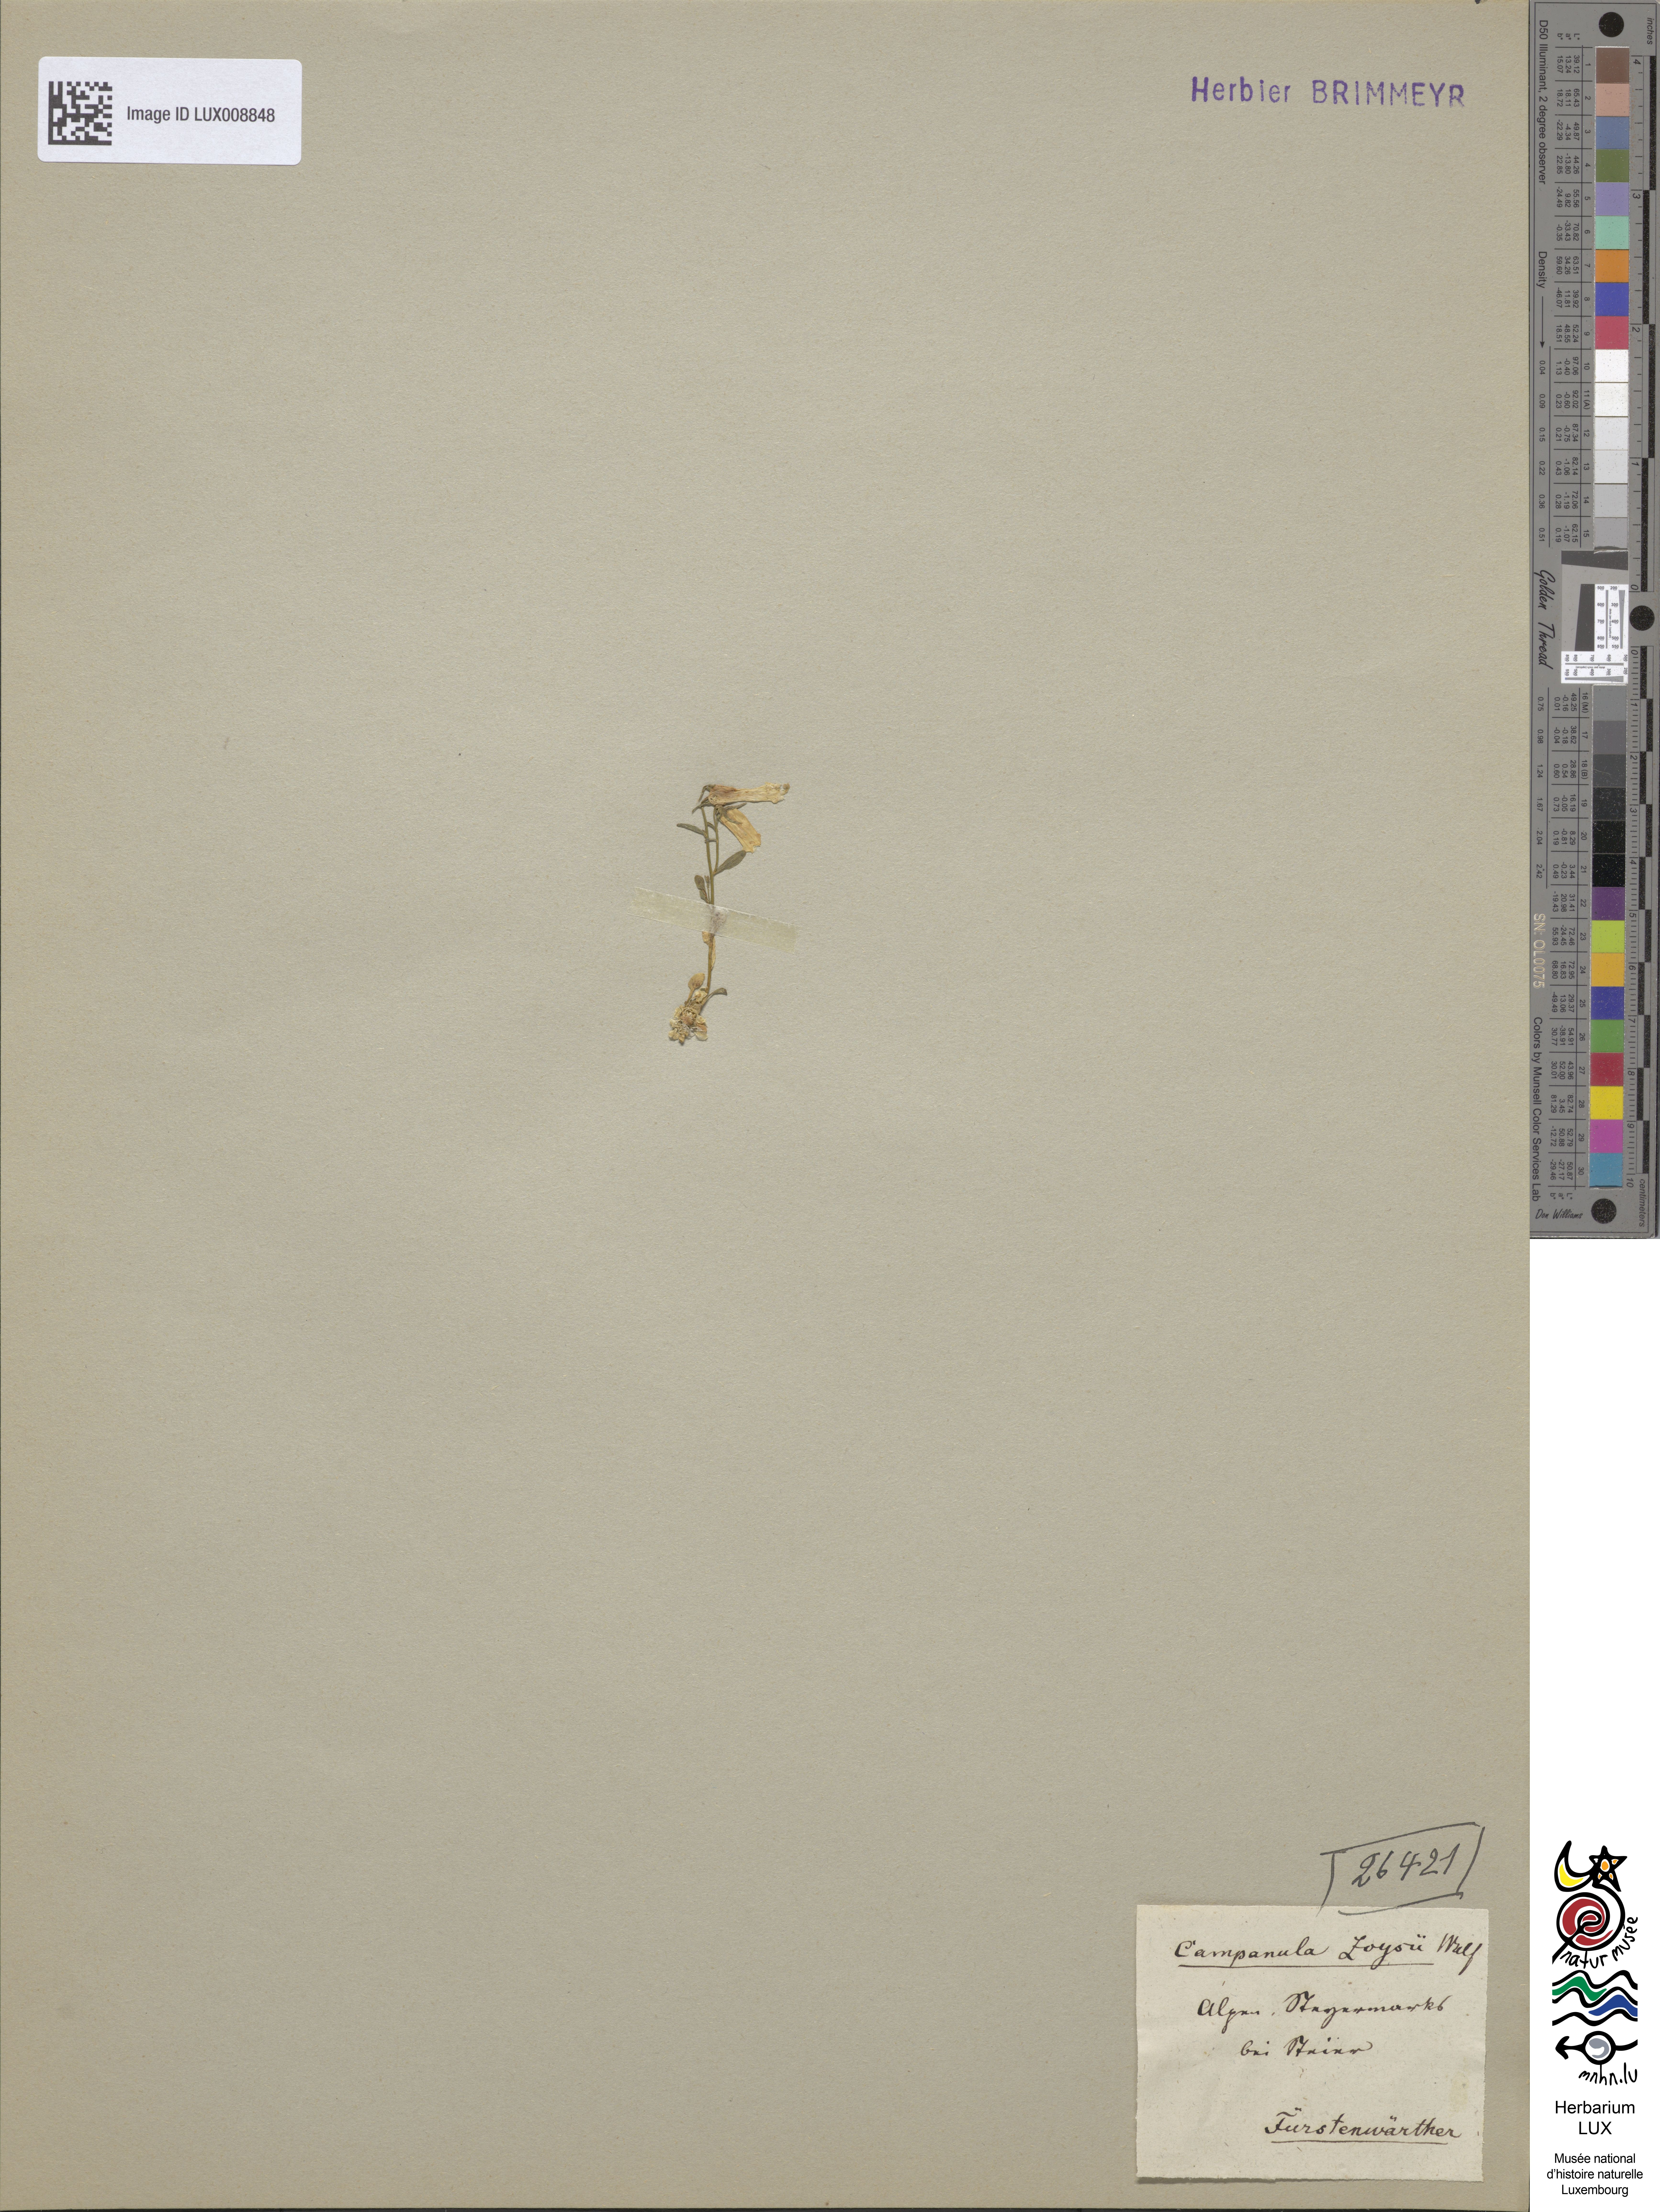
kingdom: Plantae
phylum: Tracheophyta
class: Magnoliopsida
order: Asterales
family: Campanulaceae
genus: Favratia
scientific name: Favratia zoysii
